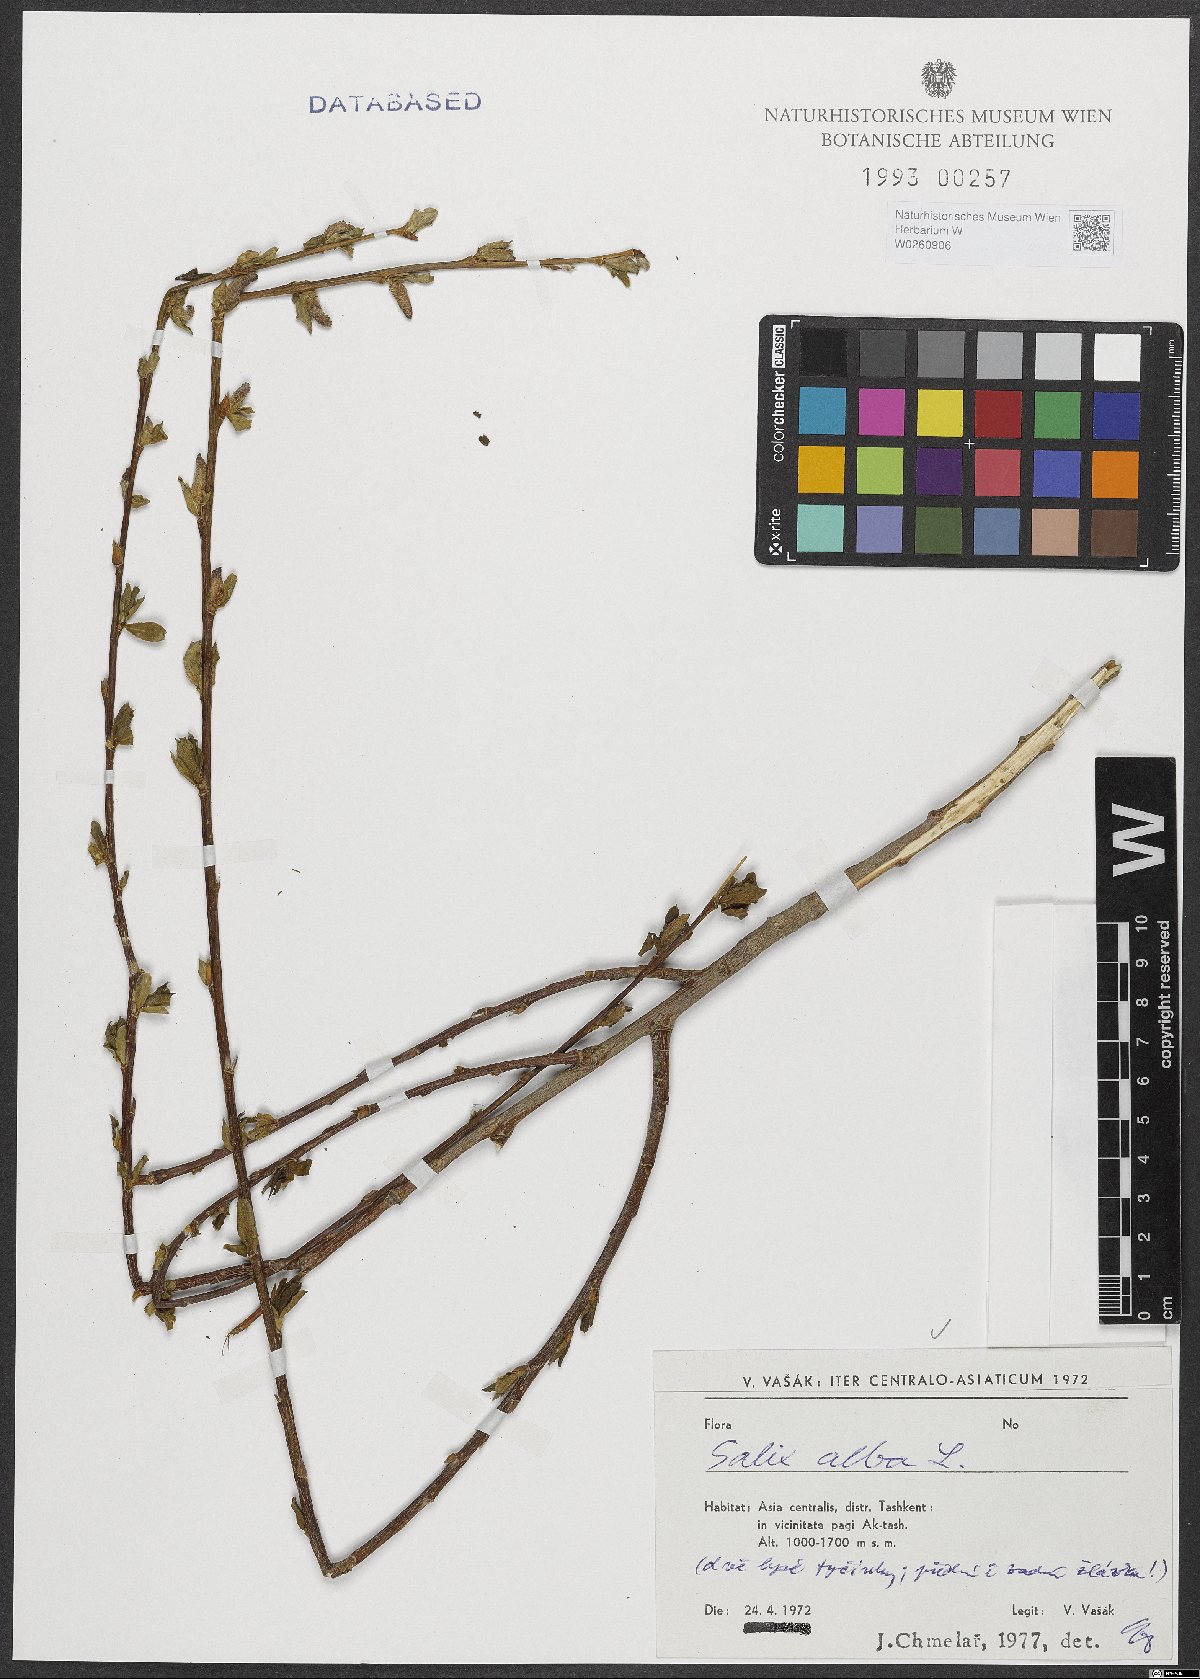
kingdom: Plantae
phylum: Tracheophyta
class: Magnoliopsida
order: Malpighiales
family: Salicaceae
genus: Salix
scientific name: Salix alba
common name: White willow
